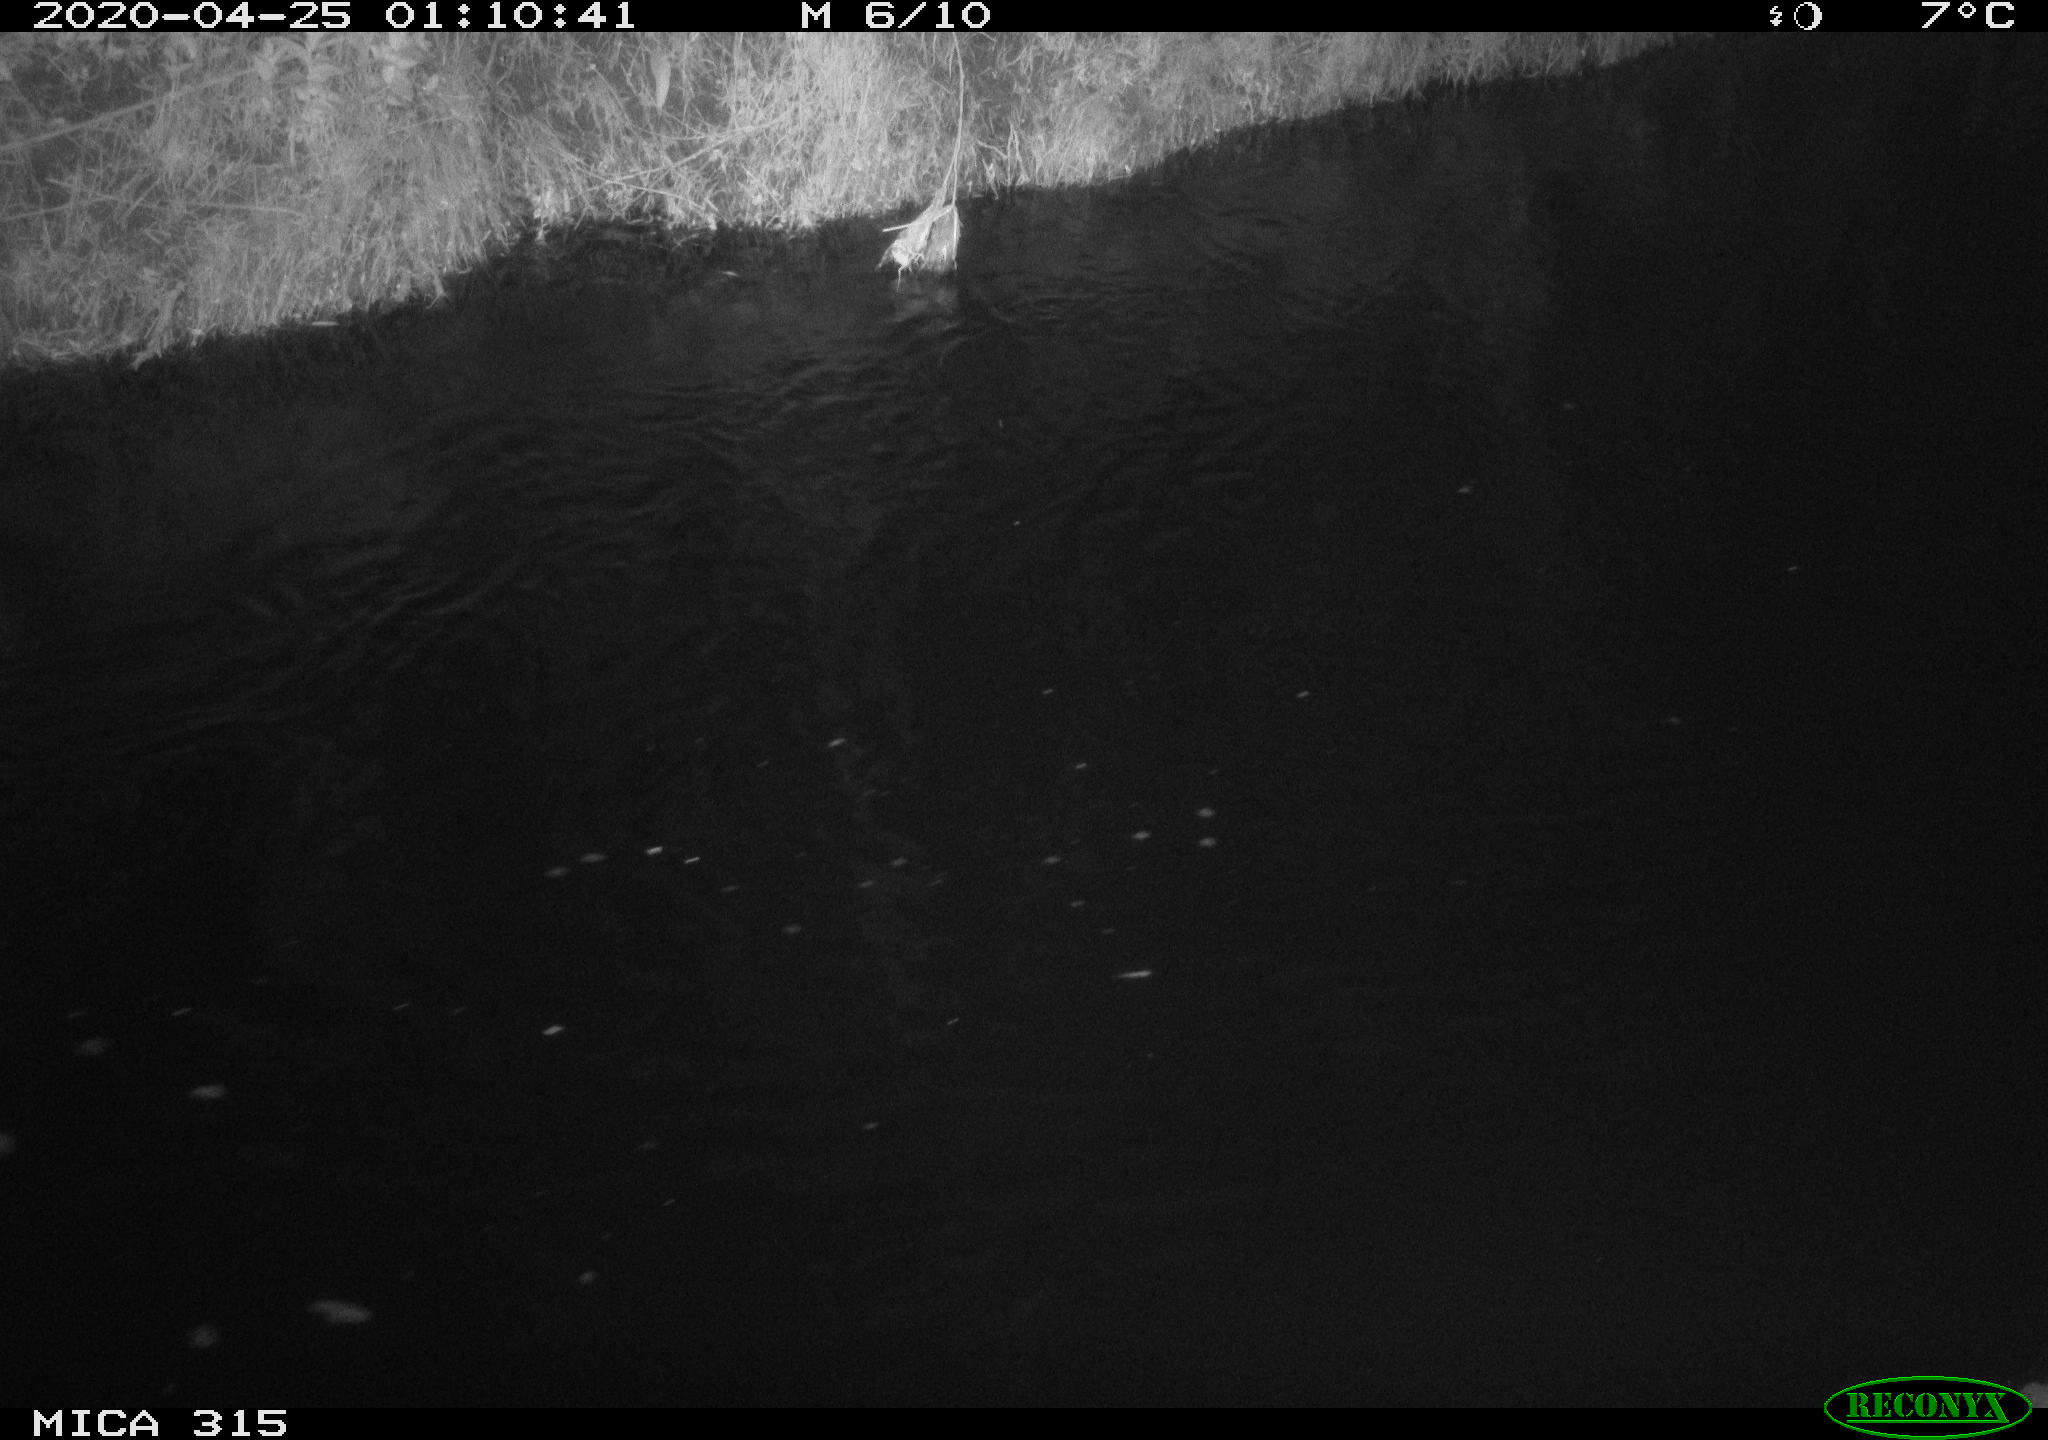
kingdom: Animalia
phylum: Chordata
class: Aves
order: Anseriformes
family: Anatidae
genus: Anas
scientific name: Anas platyrhynchos
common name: Mallard
